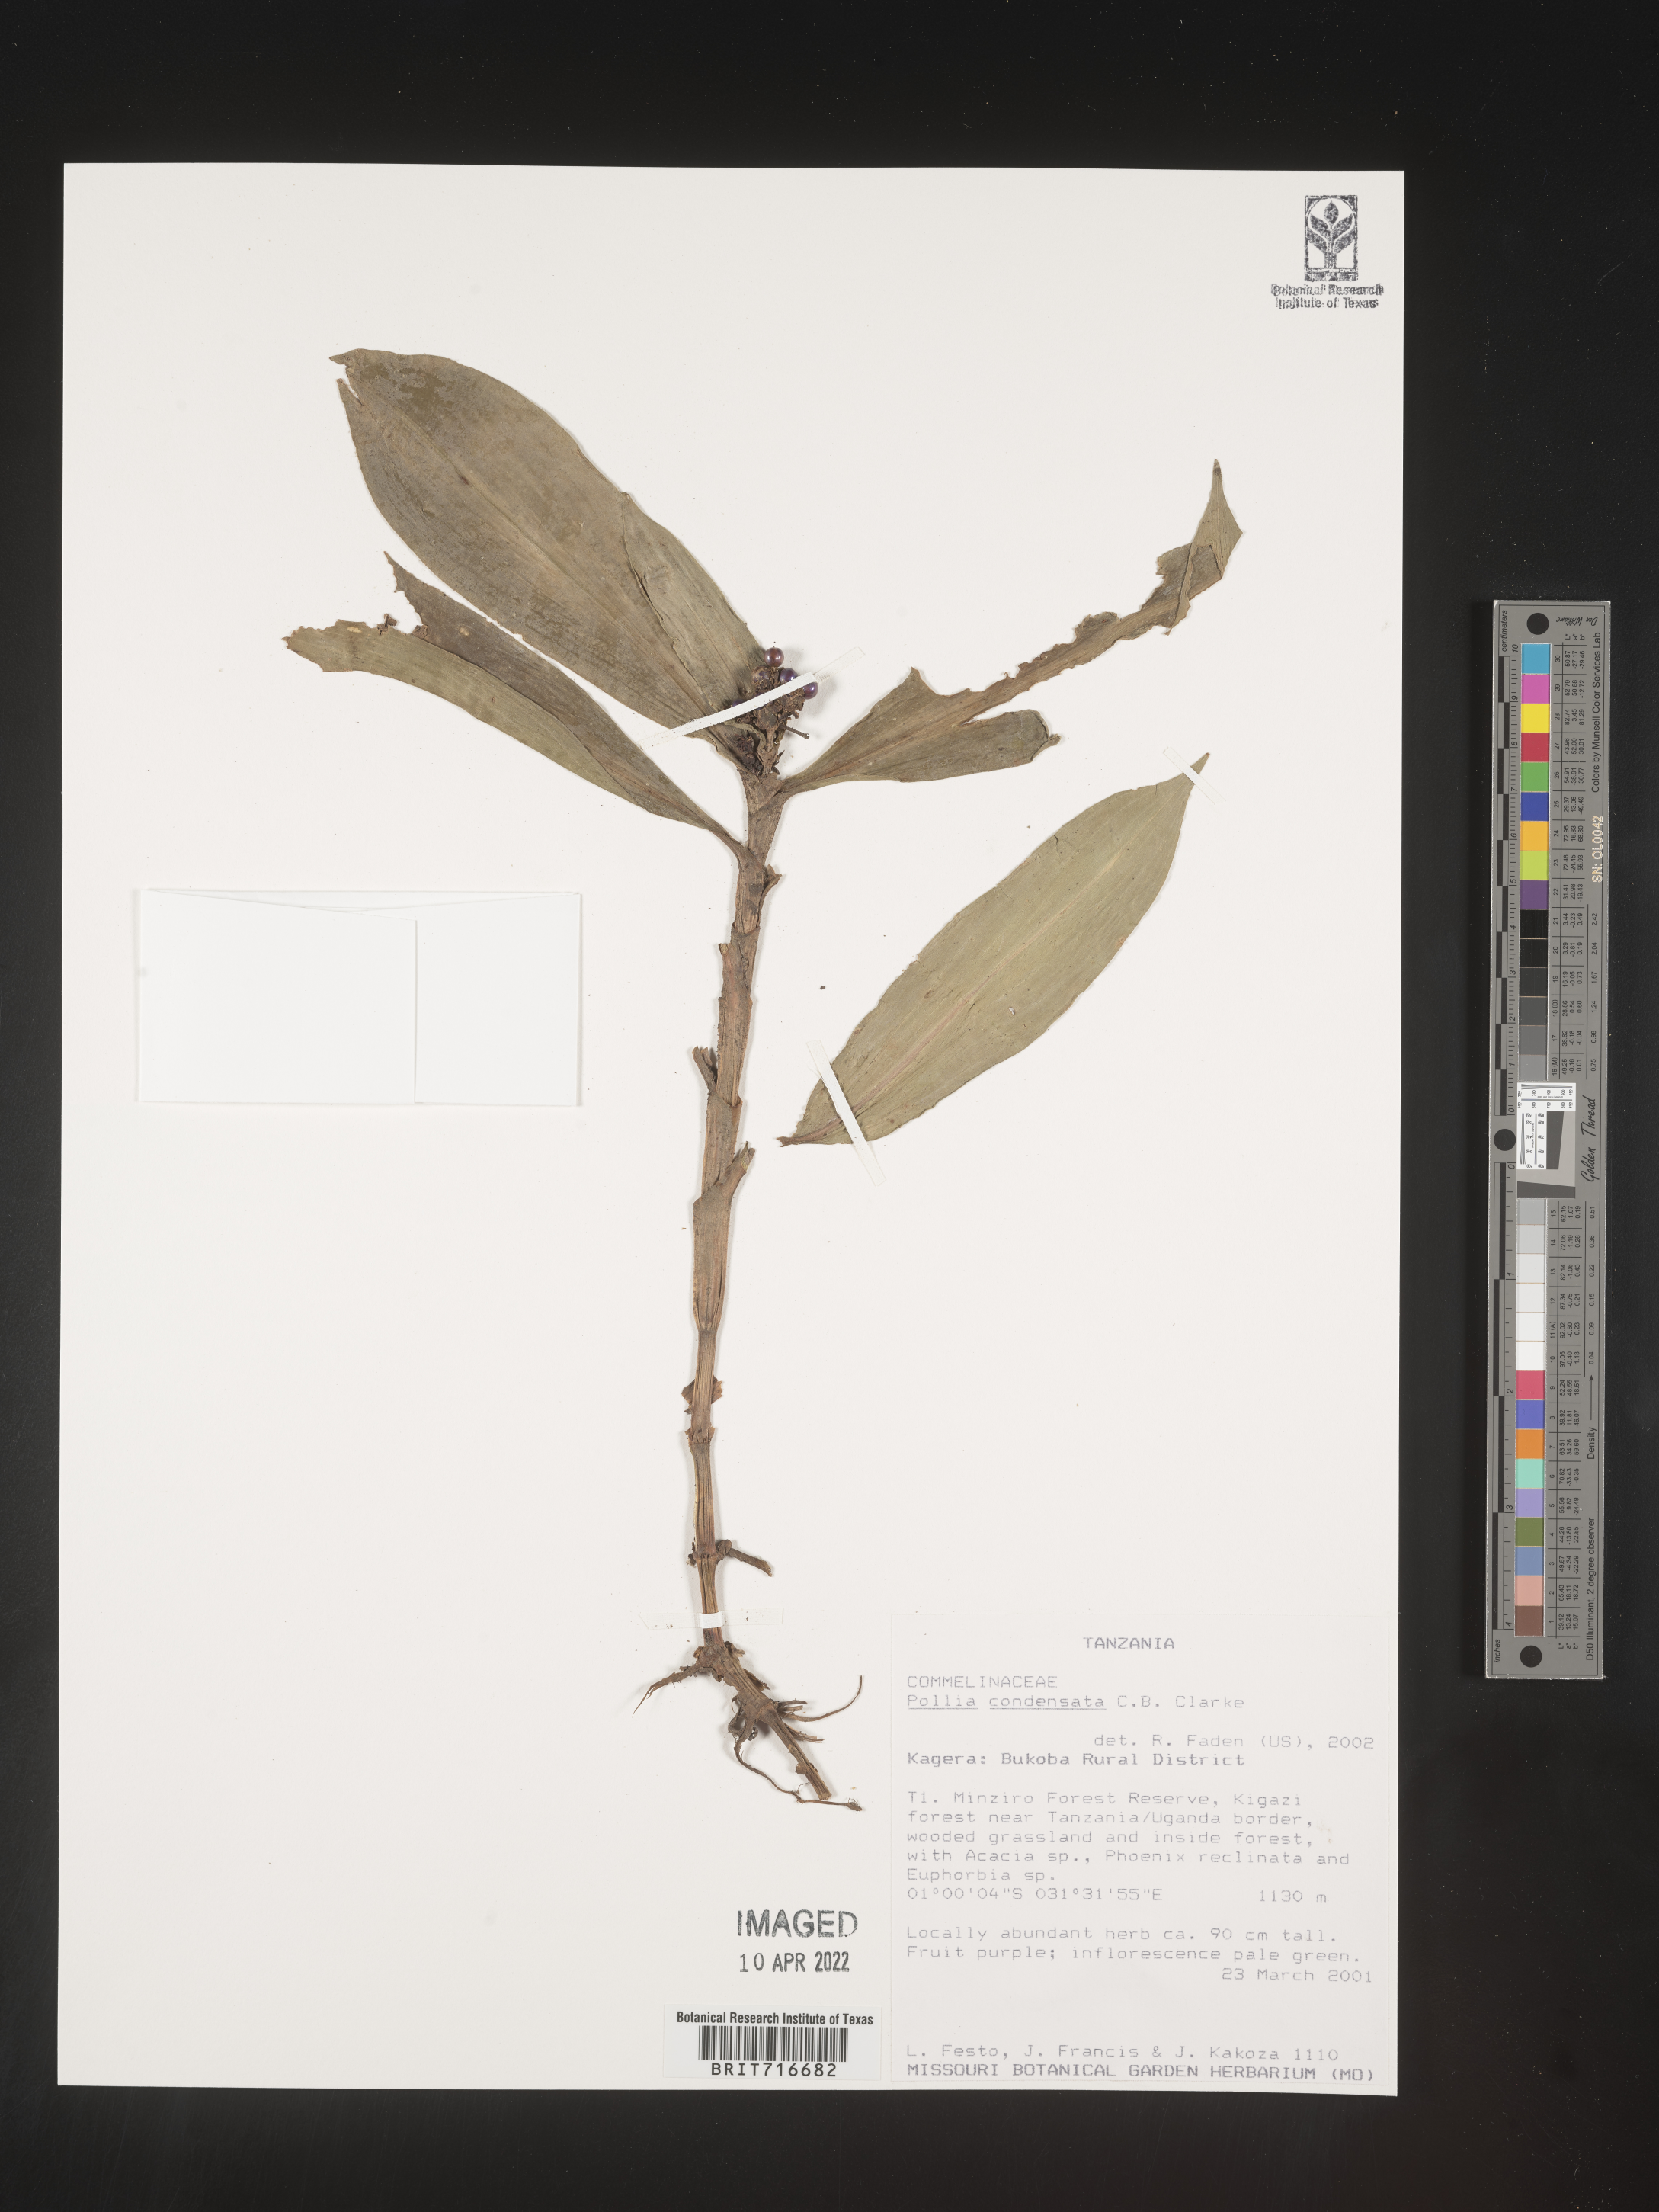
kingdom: Plantae
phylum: Tracheophyta
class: Liliopsida
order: Commelinales
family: Commelinaceae
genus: Pollia
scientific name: Pollia
